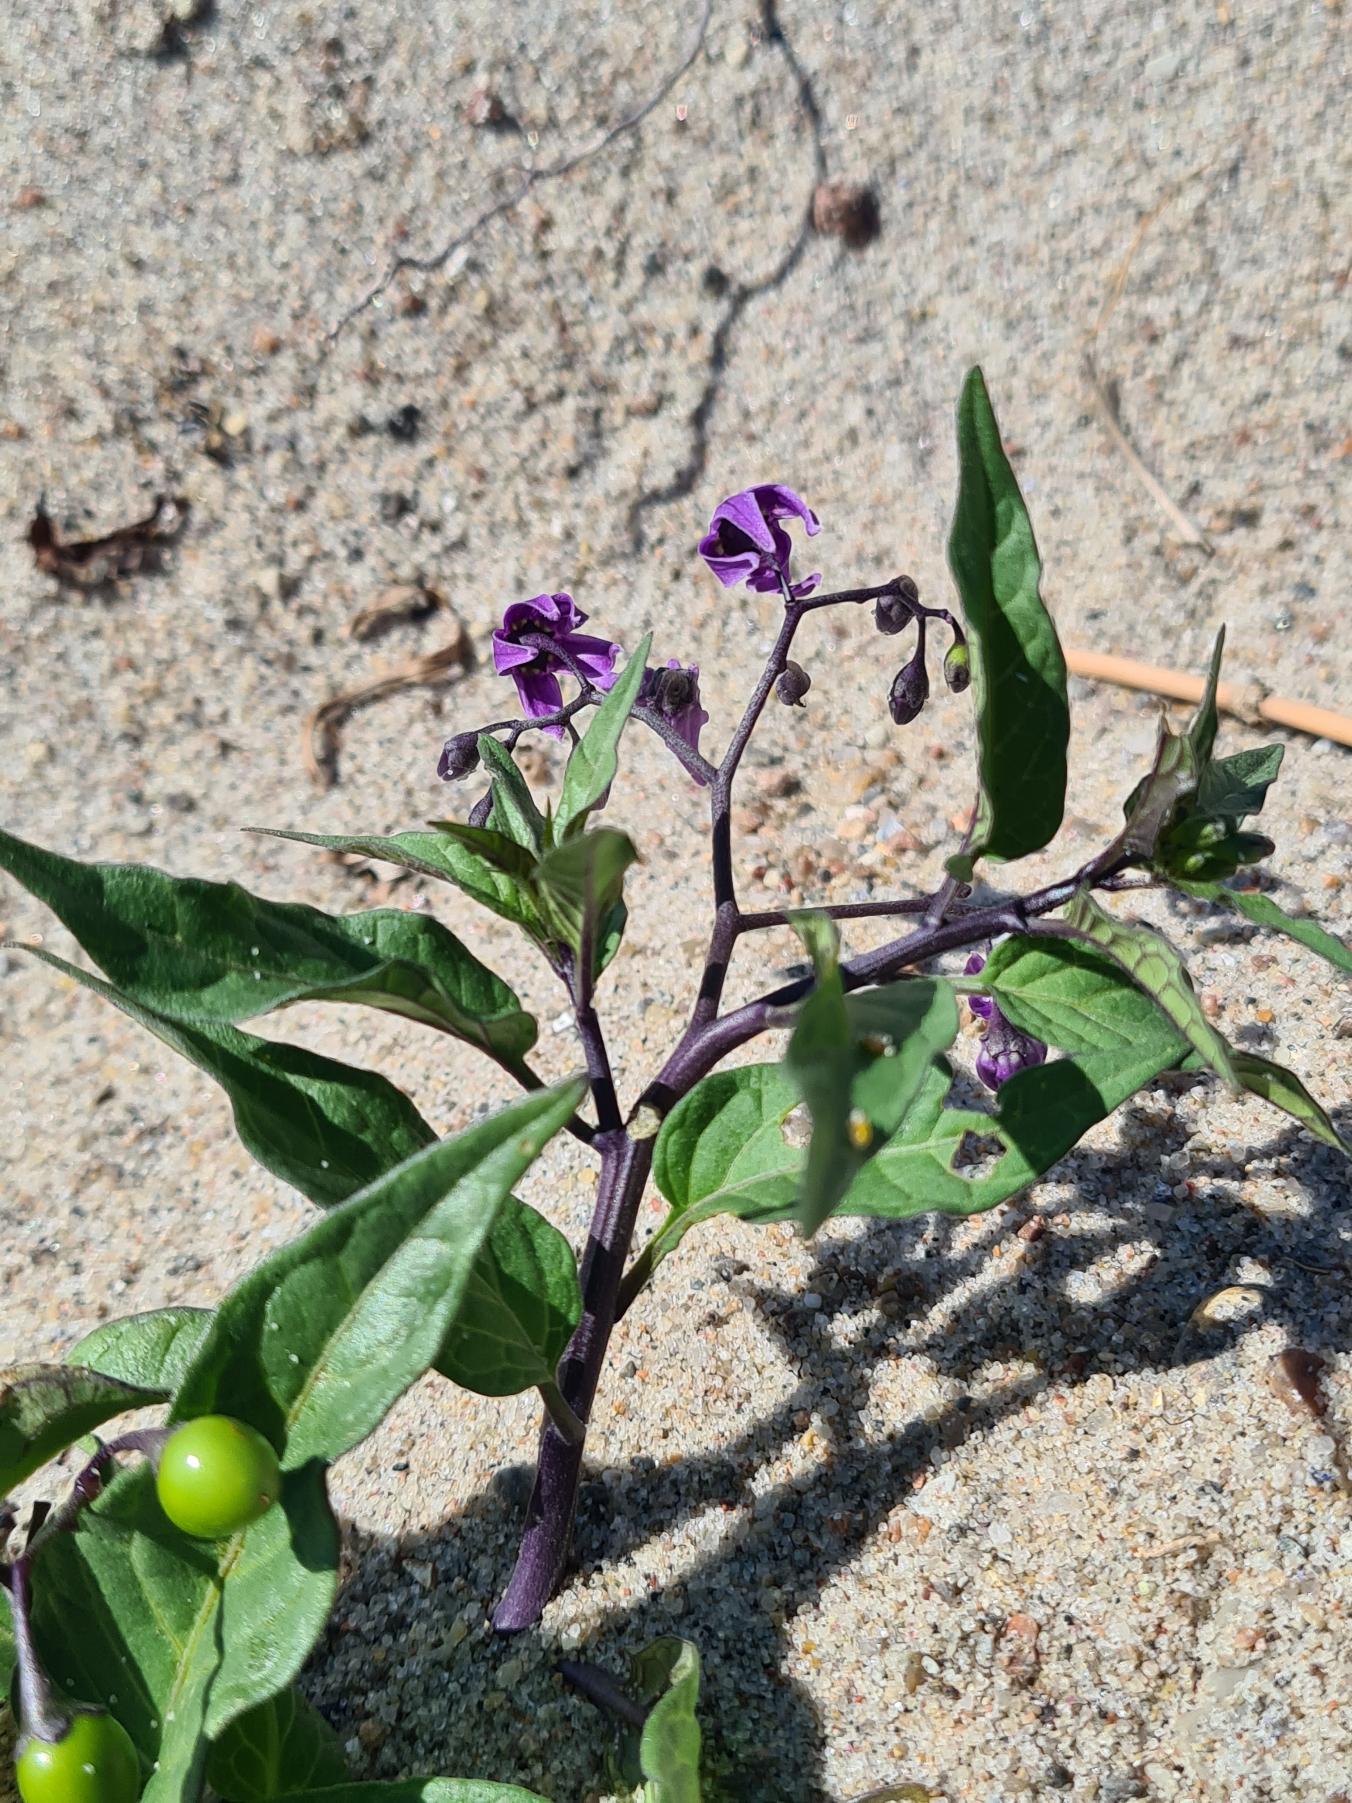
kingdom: Plantae
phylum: Tracheophyta
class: Magnoliopsida
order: Solanales
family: Solanaceae
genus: Solanum
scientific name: Solanum dulcamara
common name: Bittersød natskygge
